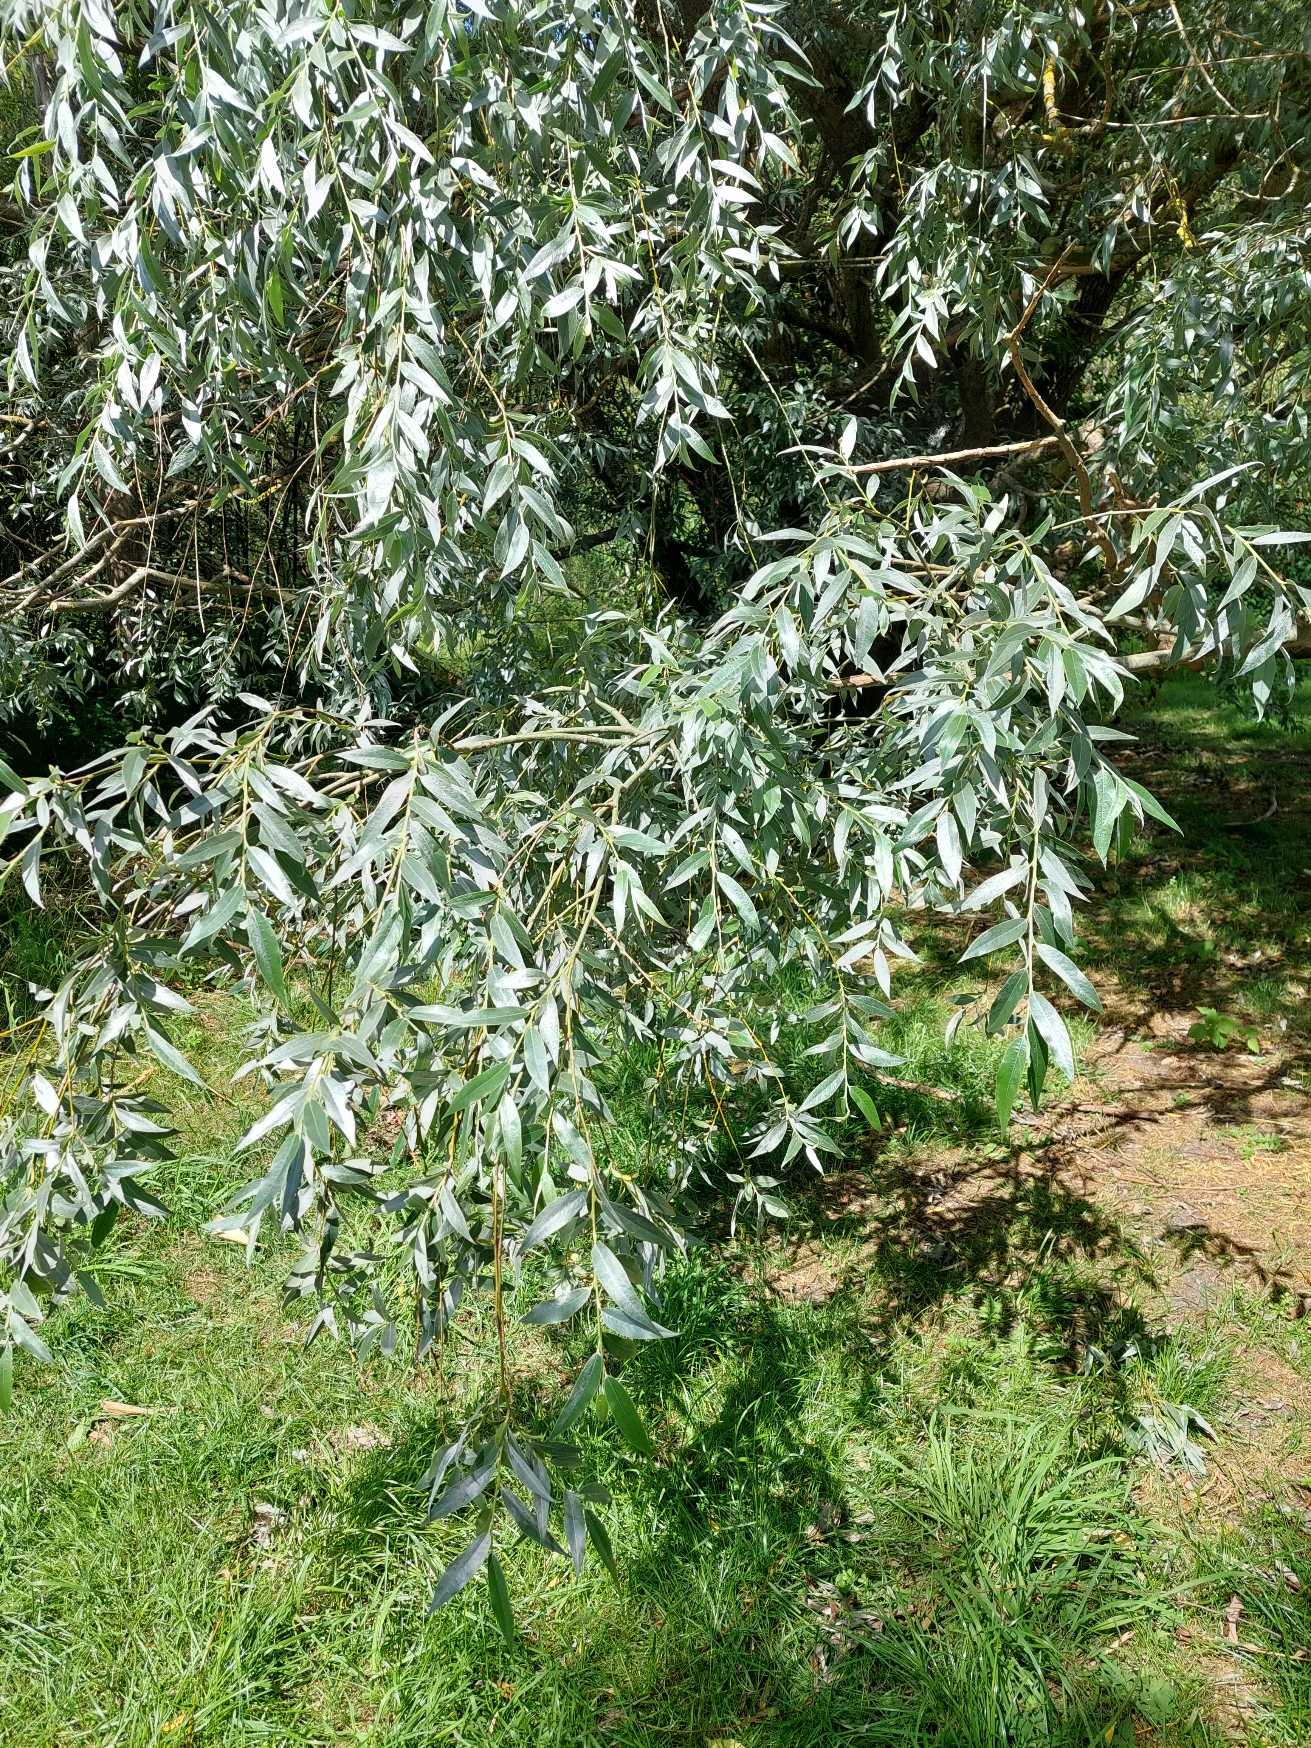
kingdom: Plantae
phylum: Tracheophyta
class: Magnoliopsida
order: Malpighiales
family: Salicaceae
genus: Salix
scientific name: Salix alba
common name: Hvid-pil
